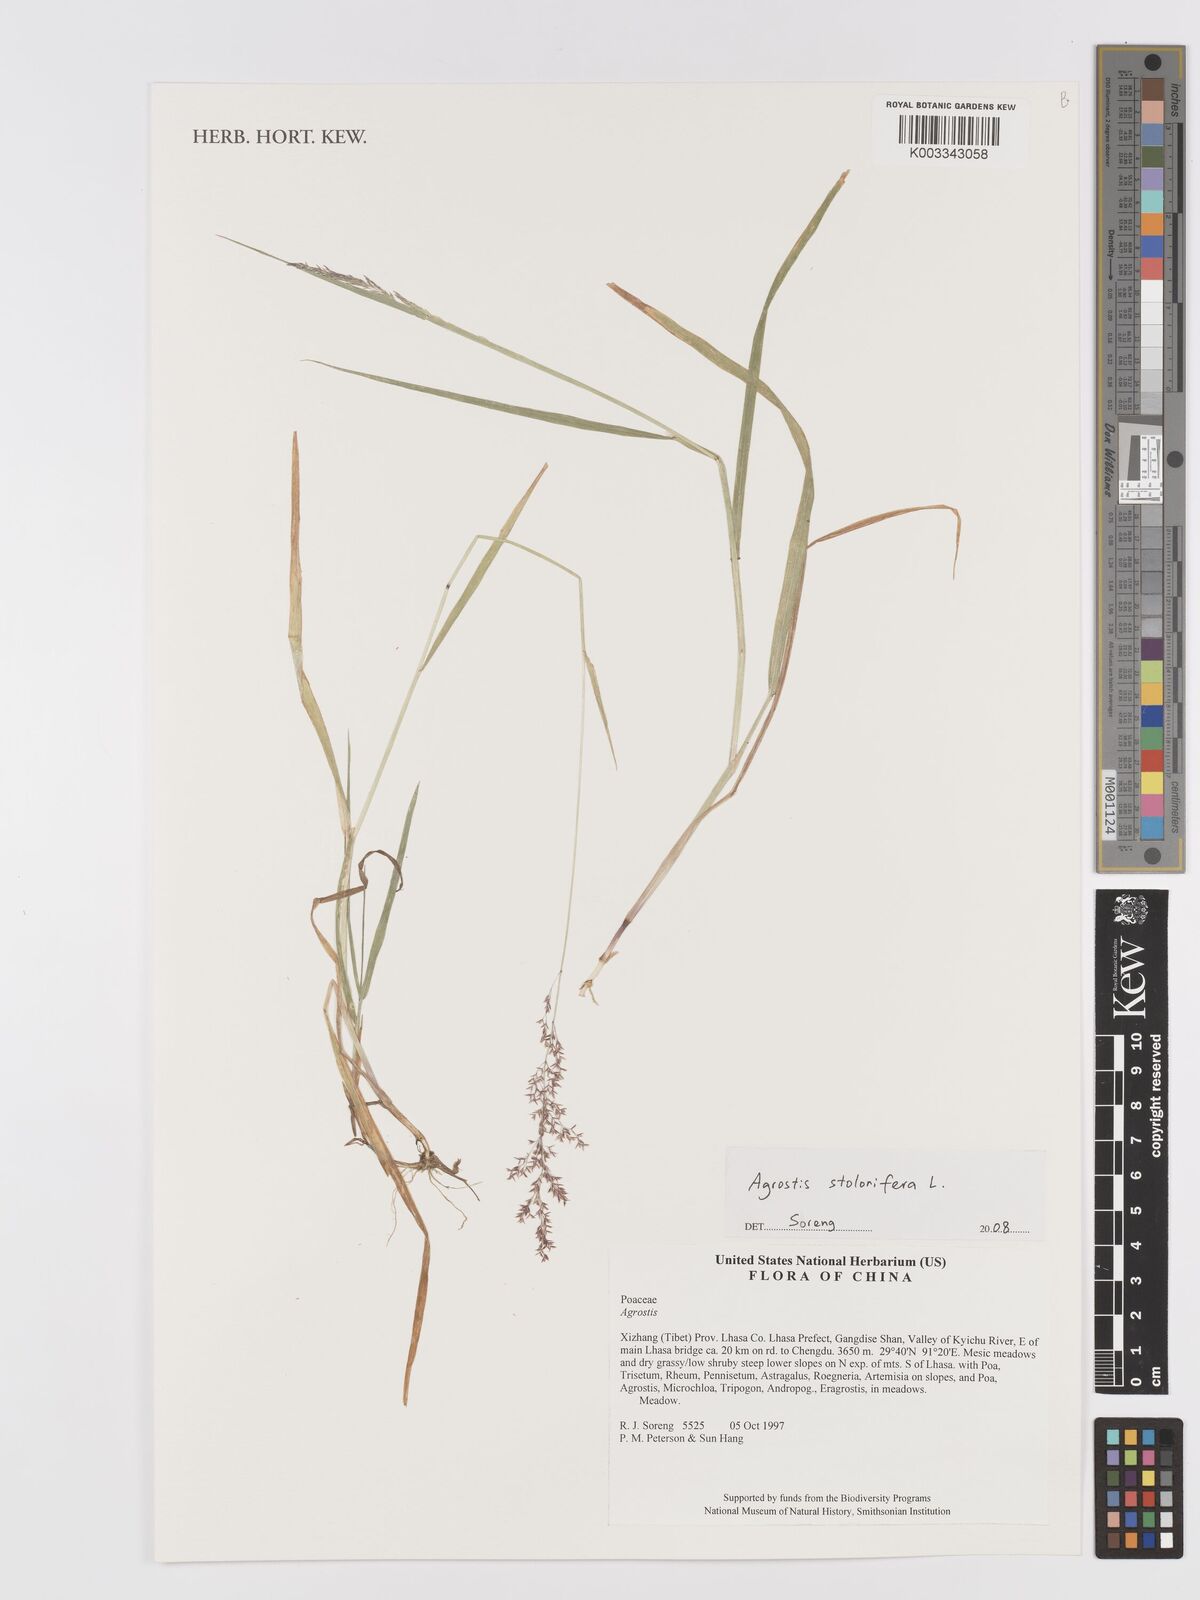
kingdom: Plantae
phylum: Tracheophyta
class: Liliopsida
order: Poales
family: Poaceae
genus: Agrostis
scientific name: Agrostis
